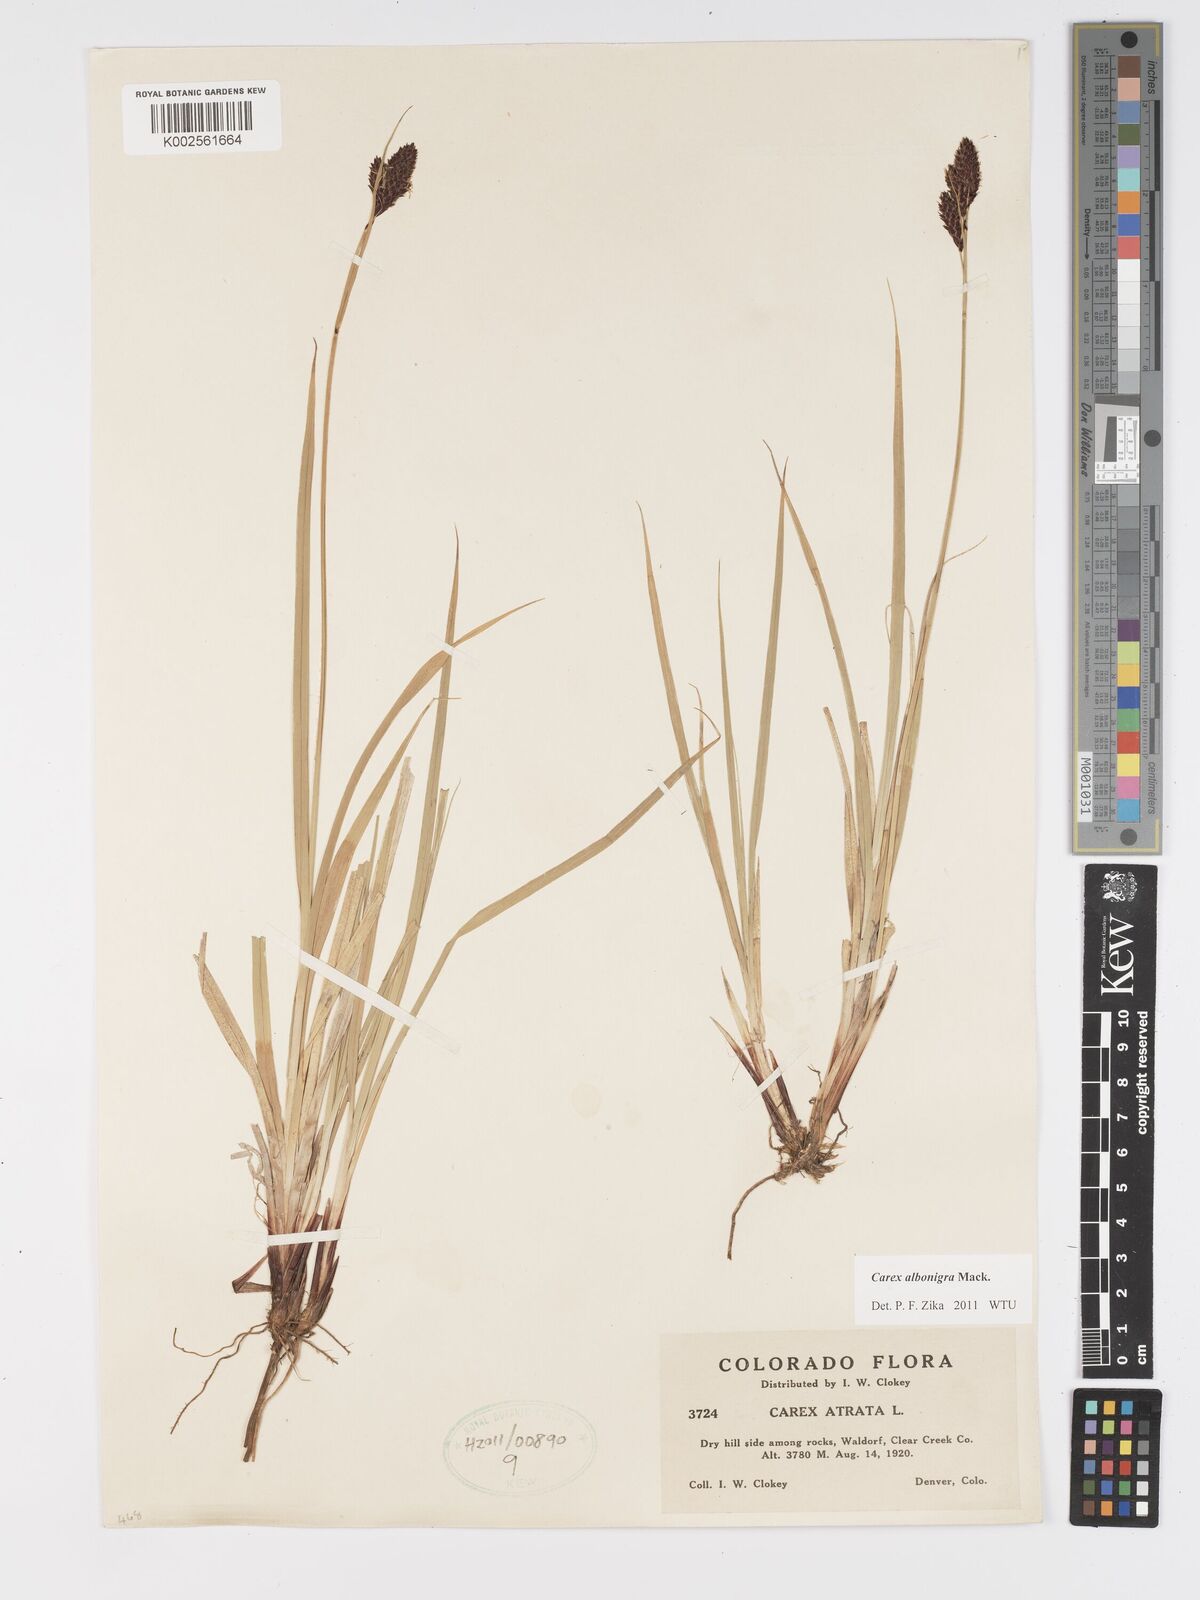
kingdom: Plantae
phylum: Tracheophyta
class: Liliopsida
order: Poales
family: Cyperaceae
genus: Carex
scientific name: Carex albonigra
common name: Black-and-white sedge
